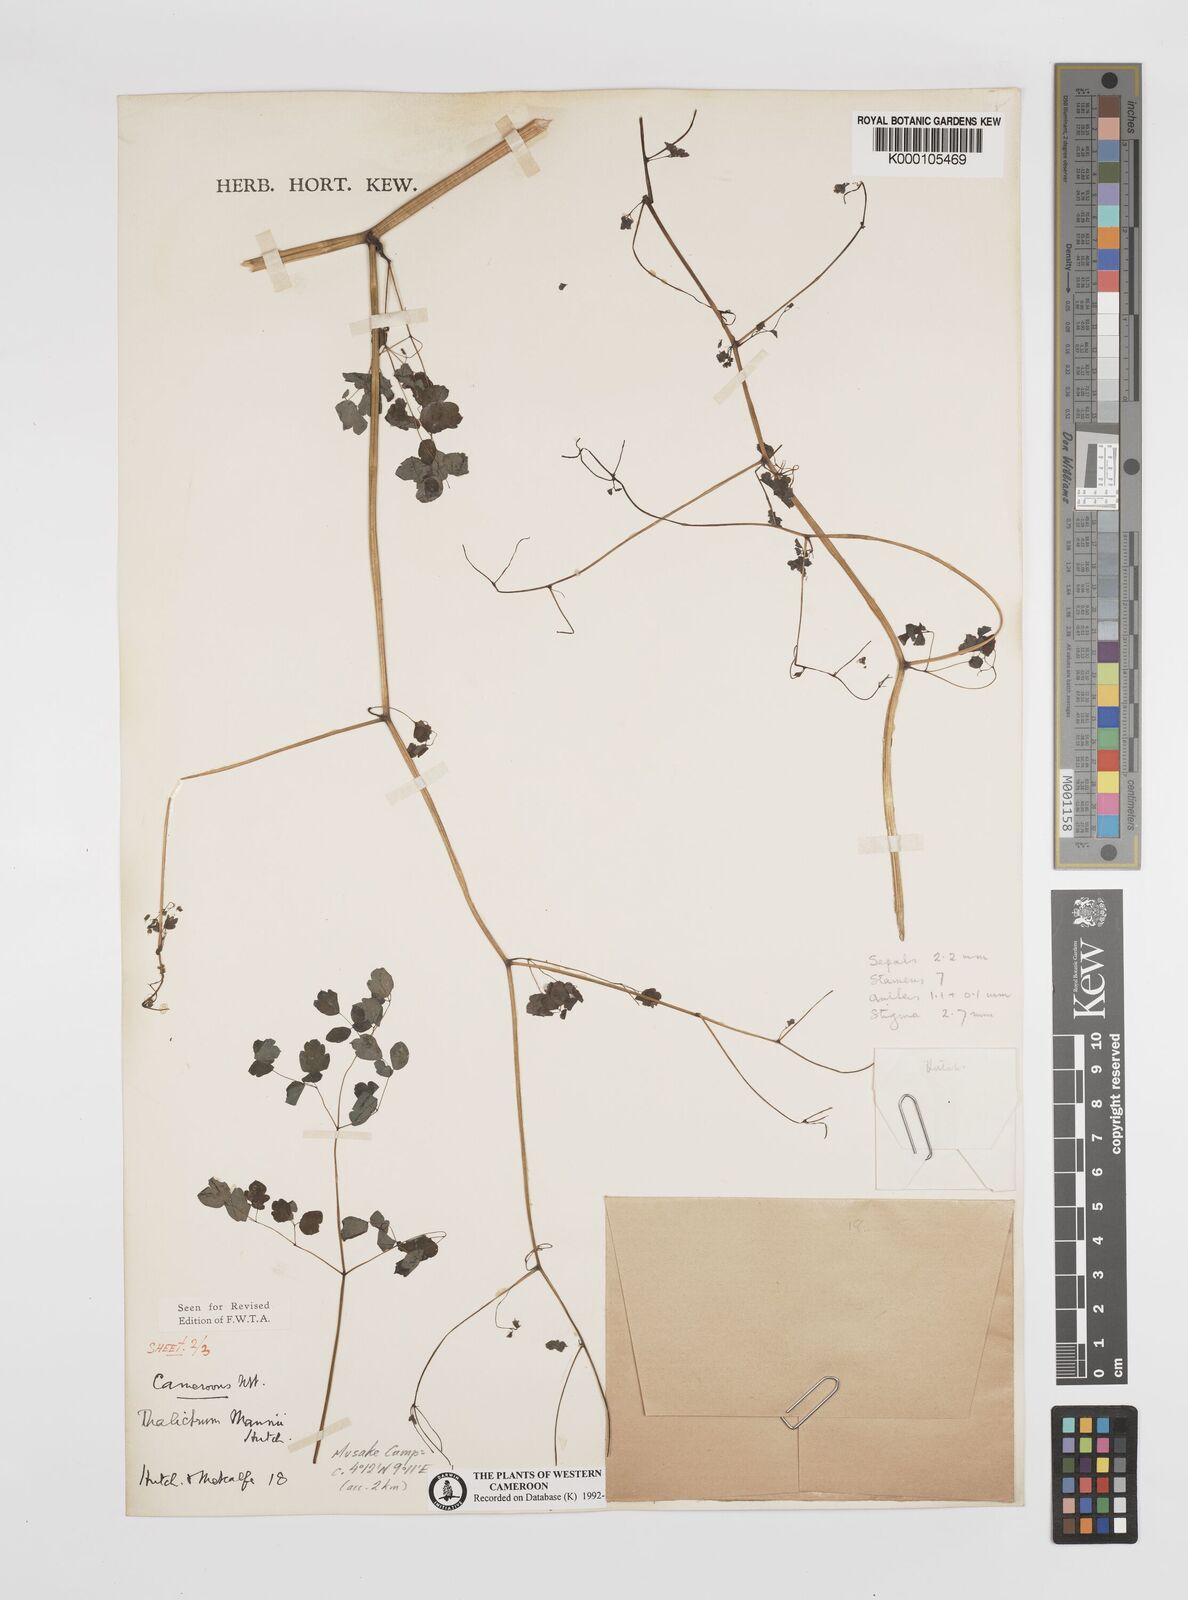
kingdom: Plantae
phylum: Tracheophyta
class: Magnoliopsida
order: Ranunculales
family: Ranunculaceae
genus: Thalictrum
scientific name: Thalictrum
